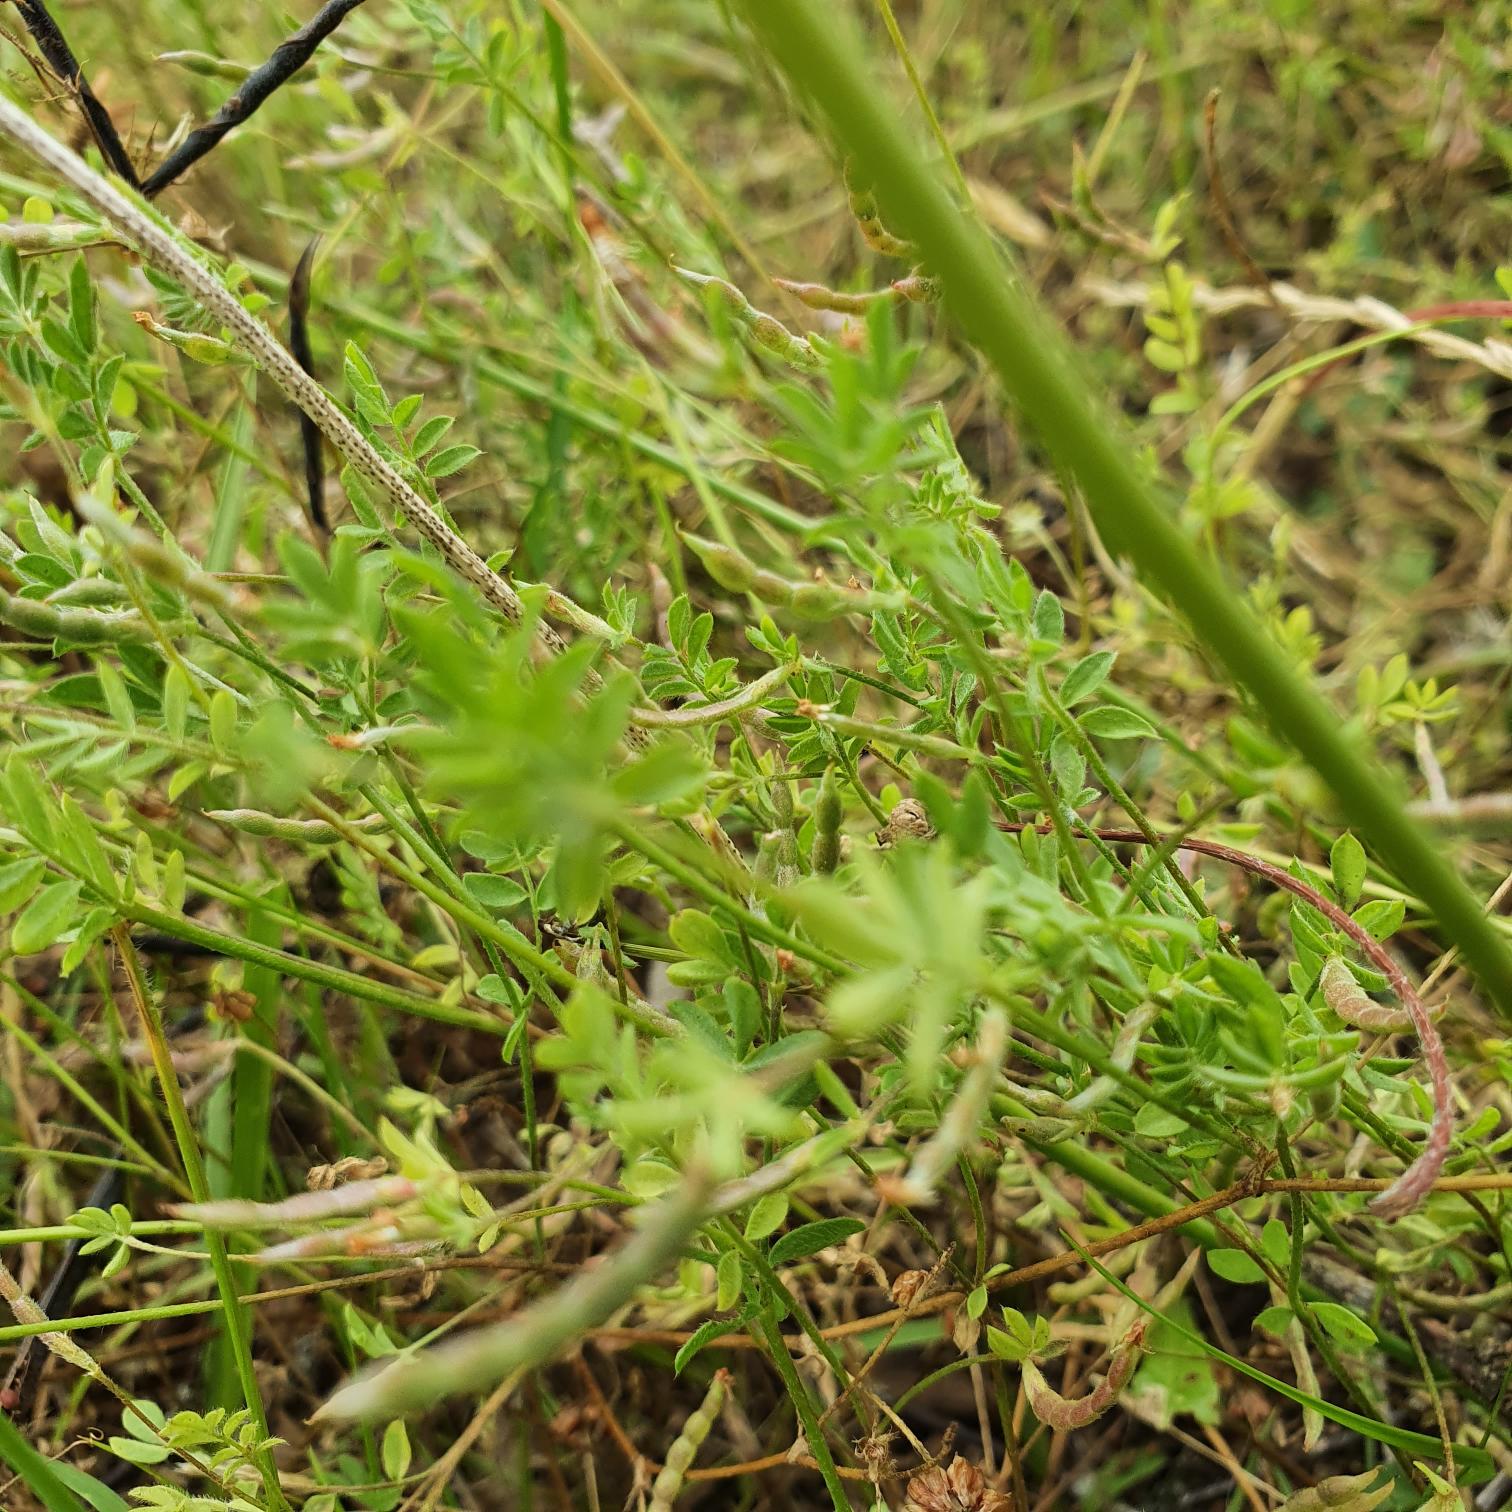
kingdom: Plantae
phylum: Tracheophyta
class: Magnoliopsida
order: Fabales
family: Fabaceae
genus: Ornithopus
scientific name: Ornithopus perpusillus
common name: Liden fugleklo
